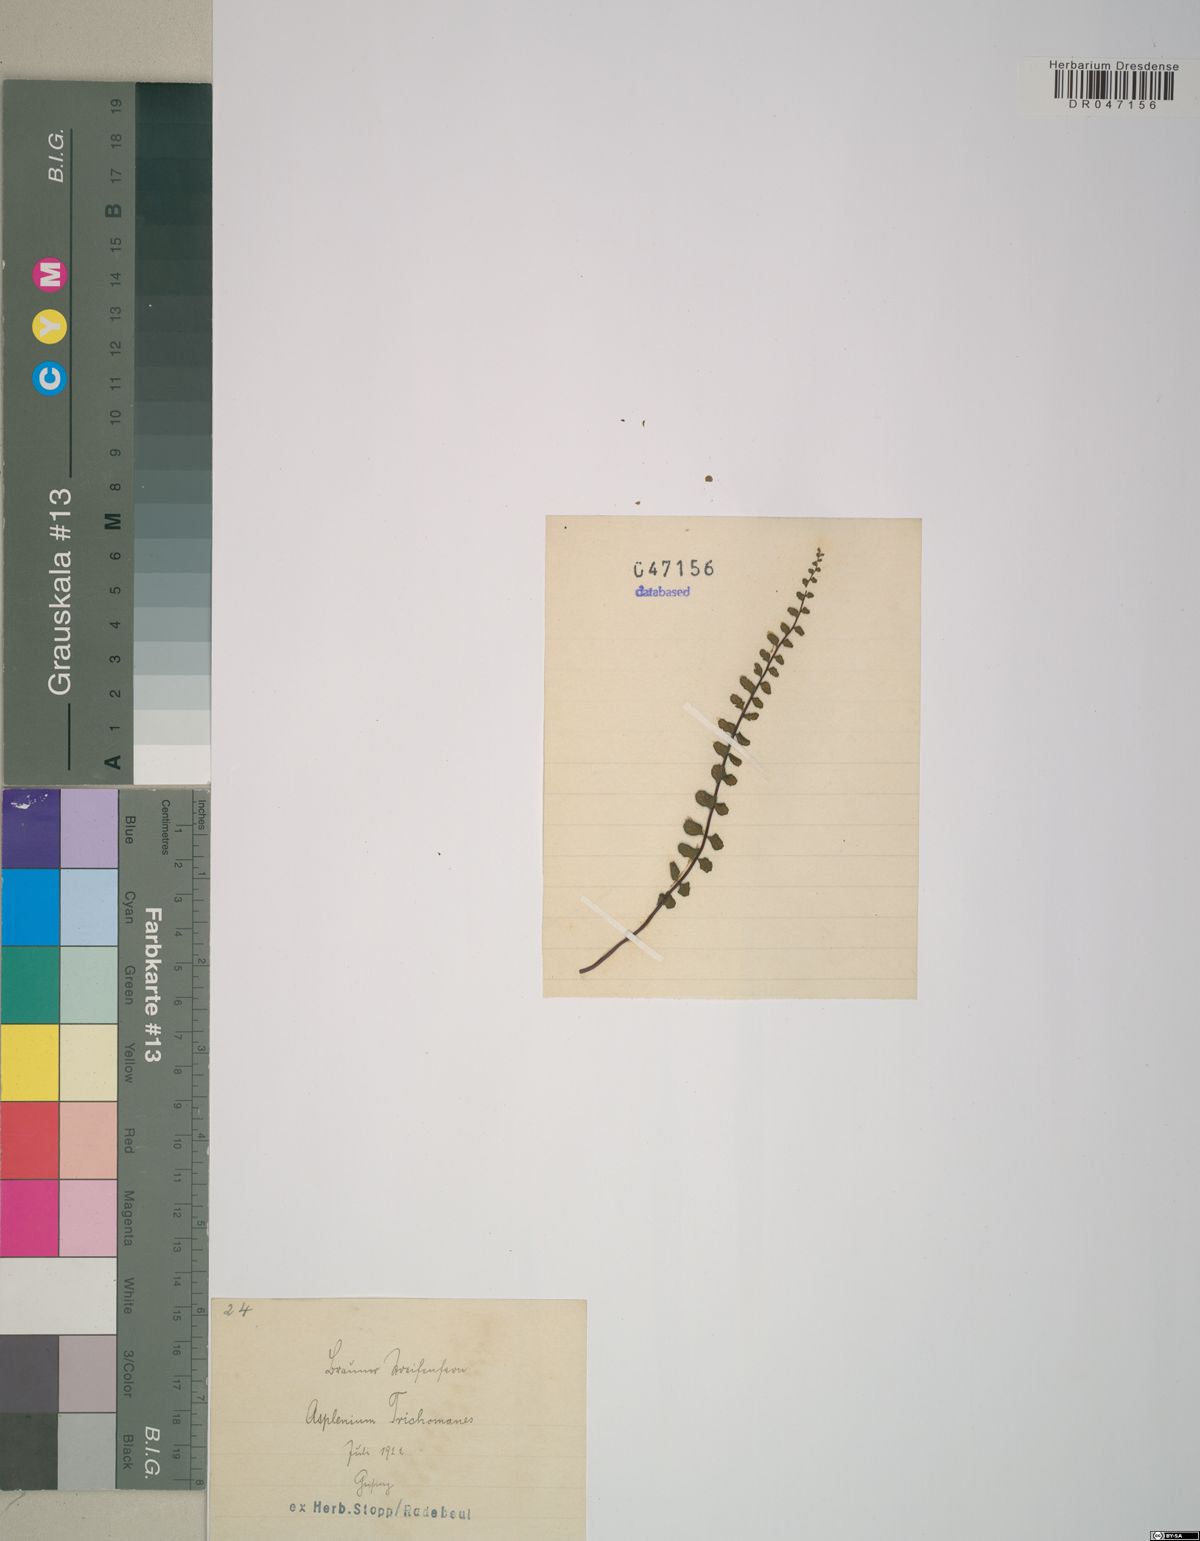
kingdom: Plantae
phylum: Tracheophyta
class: Polypodiopsida
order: Polypodiales
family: Aspleniaceae
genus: Asplenium
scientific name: Asplenium trichomanes
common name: Maidenhair spleenwort
